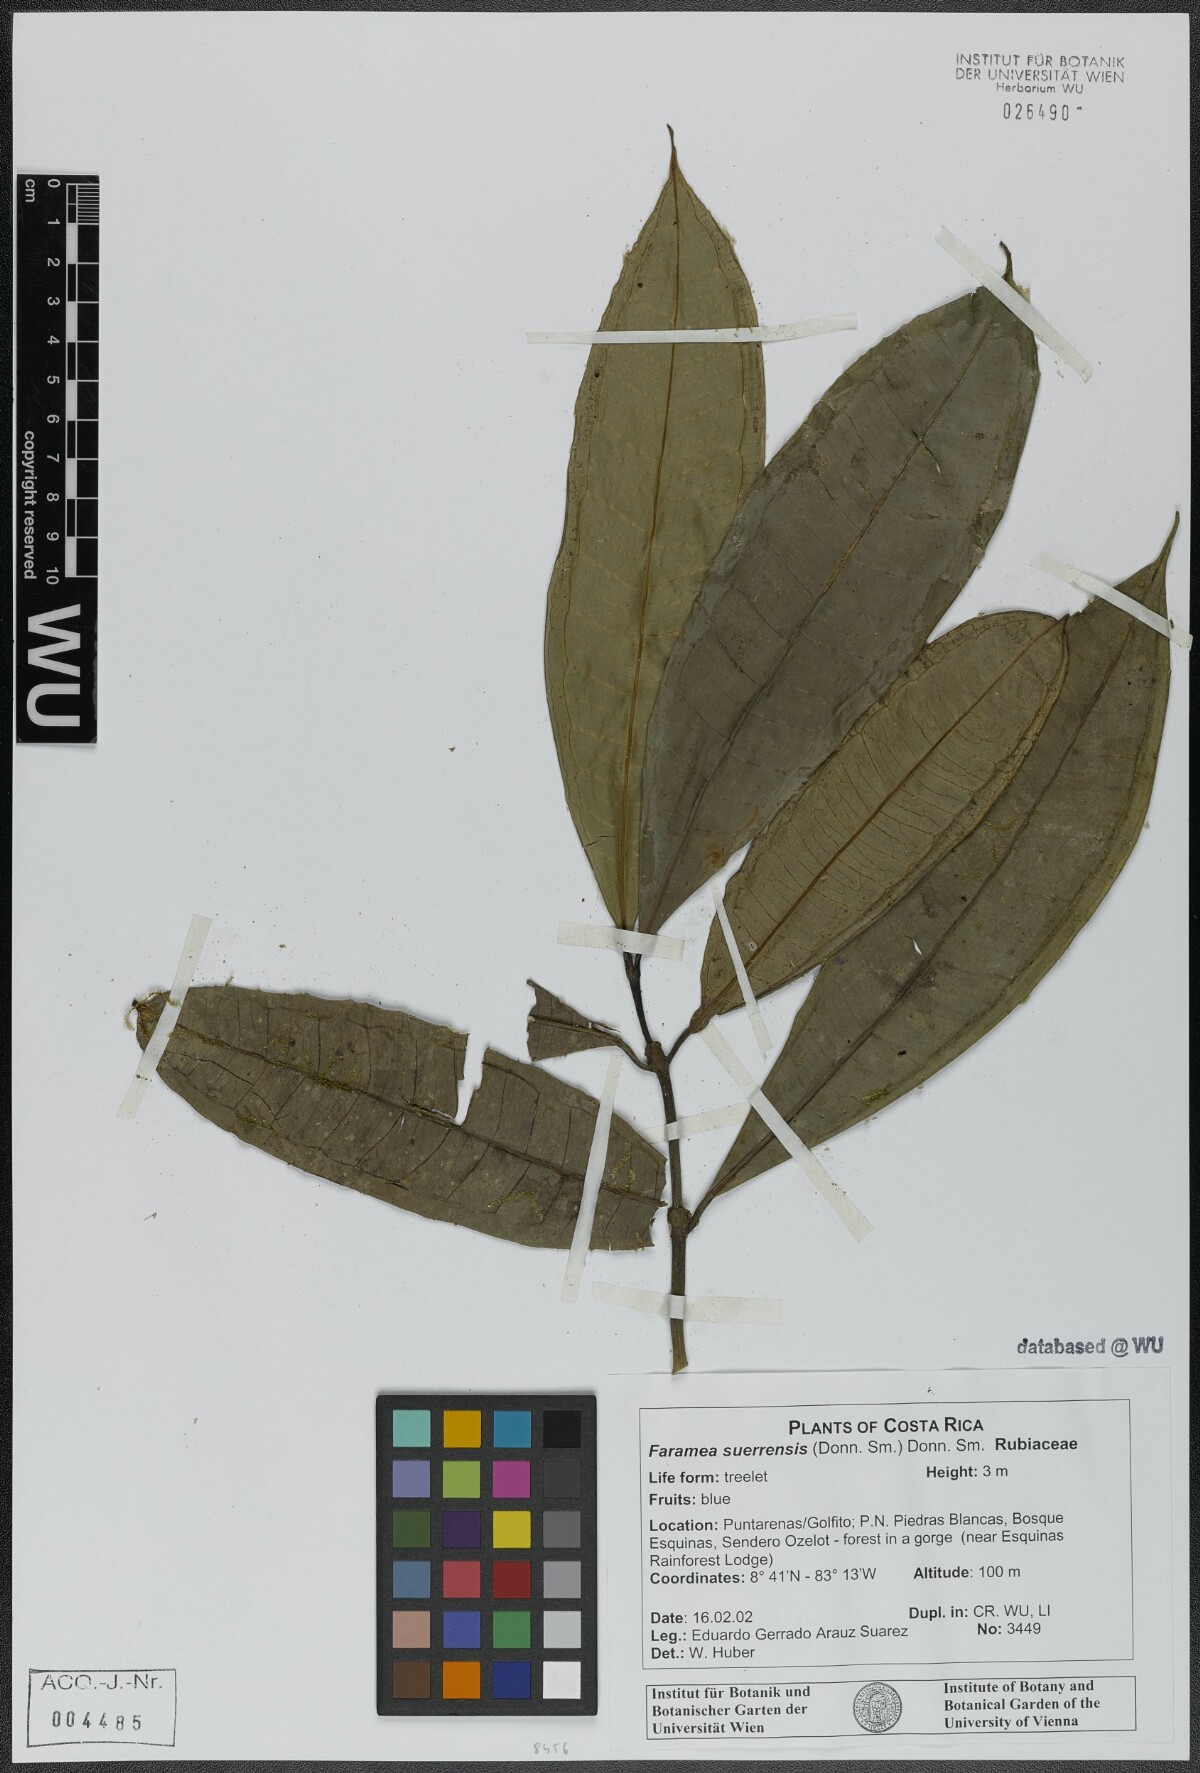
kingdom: Plantae
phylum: Tracheophyta
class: Magnoliopsida
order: Gentianales
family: Rubiaceae
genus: Faramea
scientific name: Faramea suerrensis
